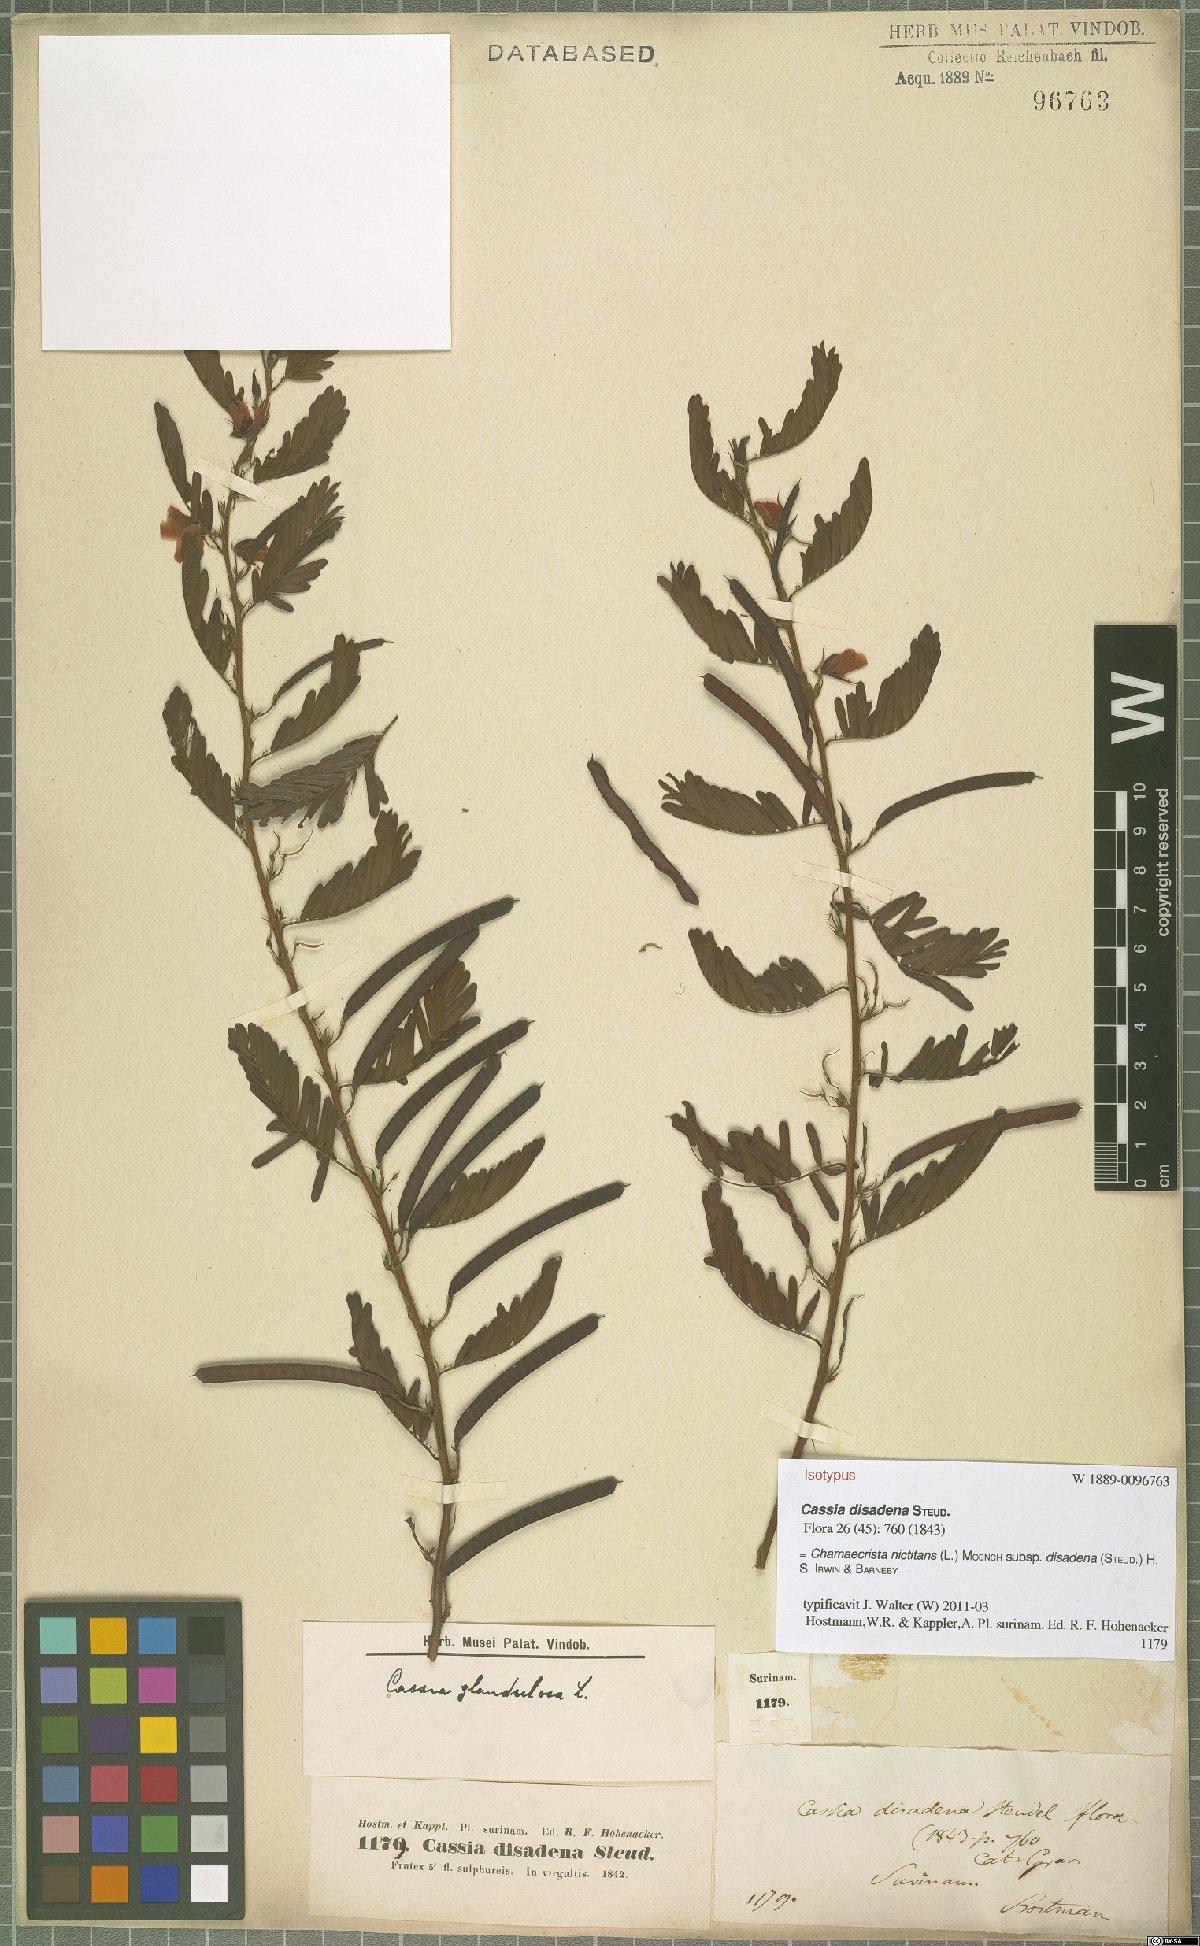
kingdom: Plantae
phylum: Tracheophyta
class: Magnoliopsida
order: Fabales
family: Fabaceae
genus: Chamaecrista
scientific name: Chamaecrista nictitans
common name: Sensitive cassia
